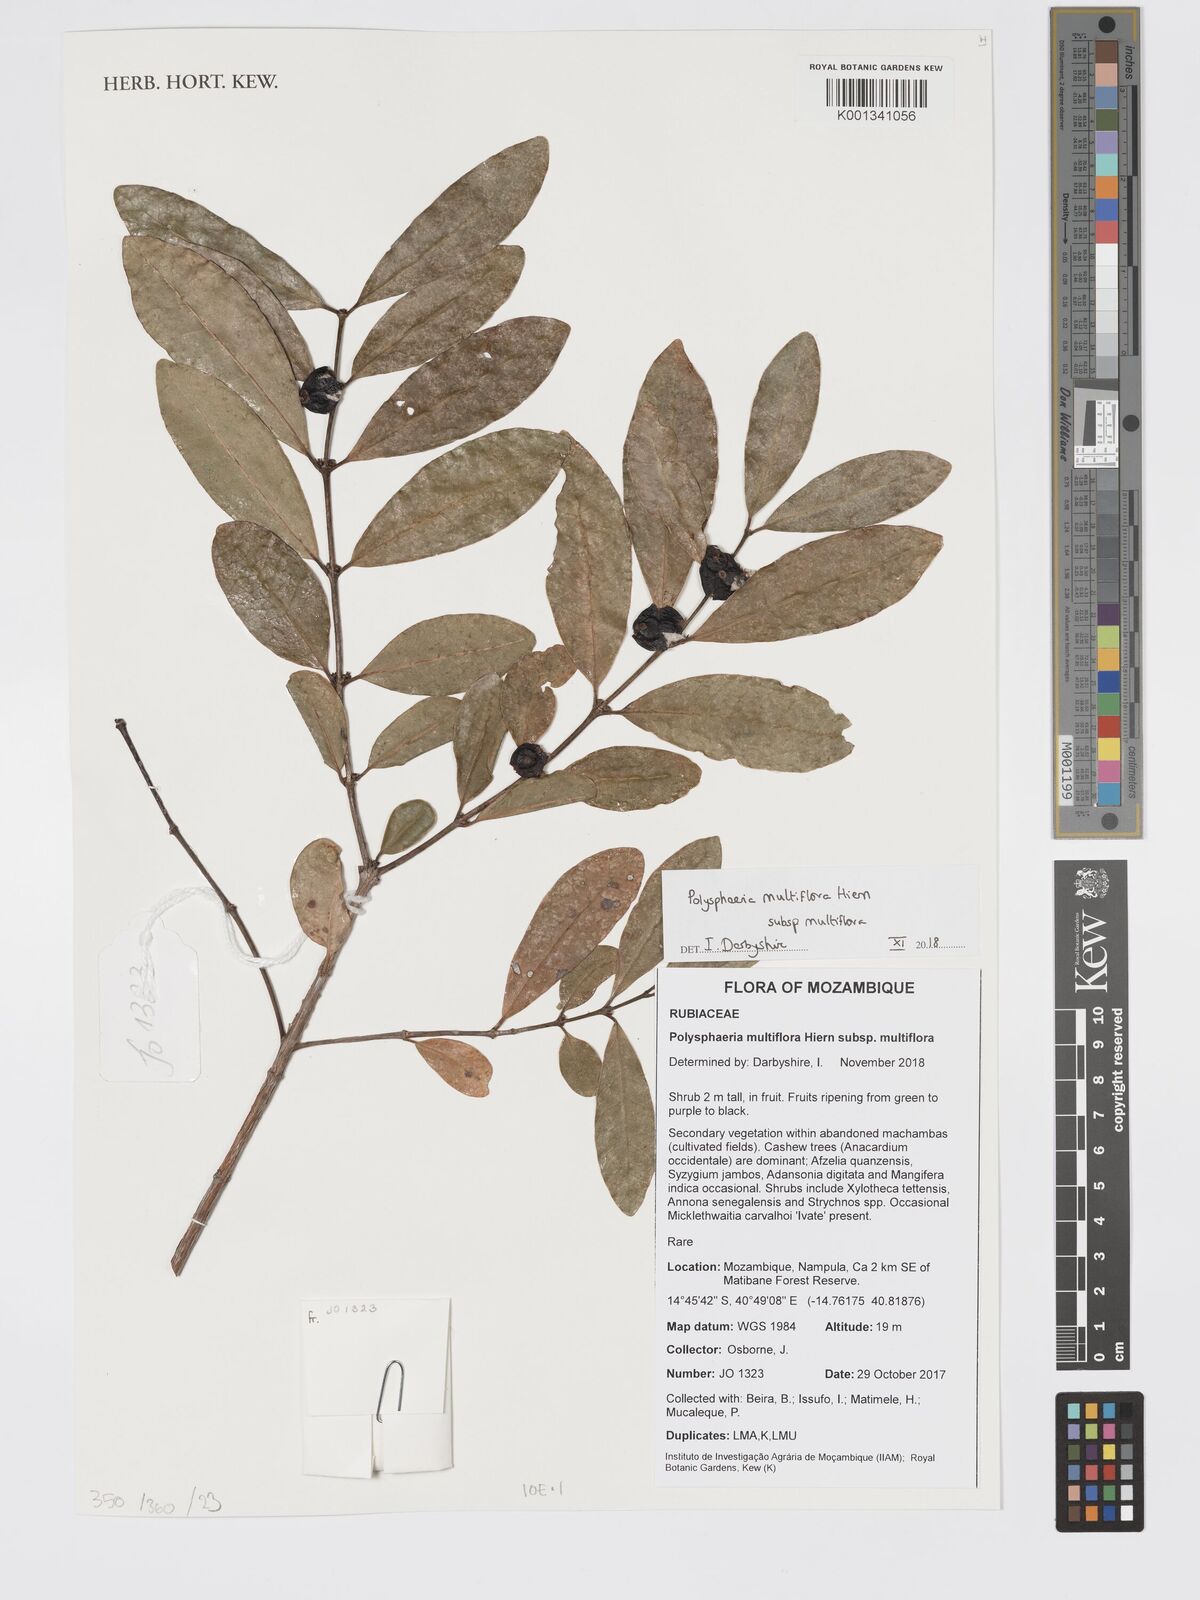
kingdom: Plantae
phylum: Tracheophyta
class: Magnoliopsida
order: Gentianales
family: Rubiaceae
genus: Polysphaeria
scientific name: Polysphaeria multiflora
